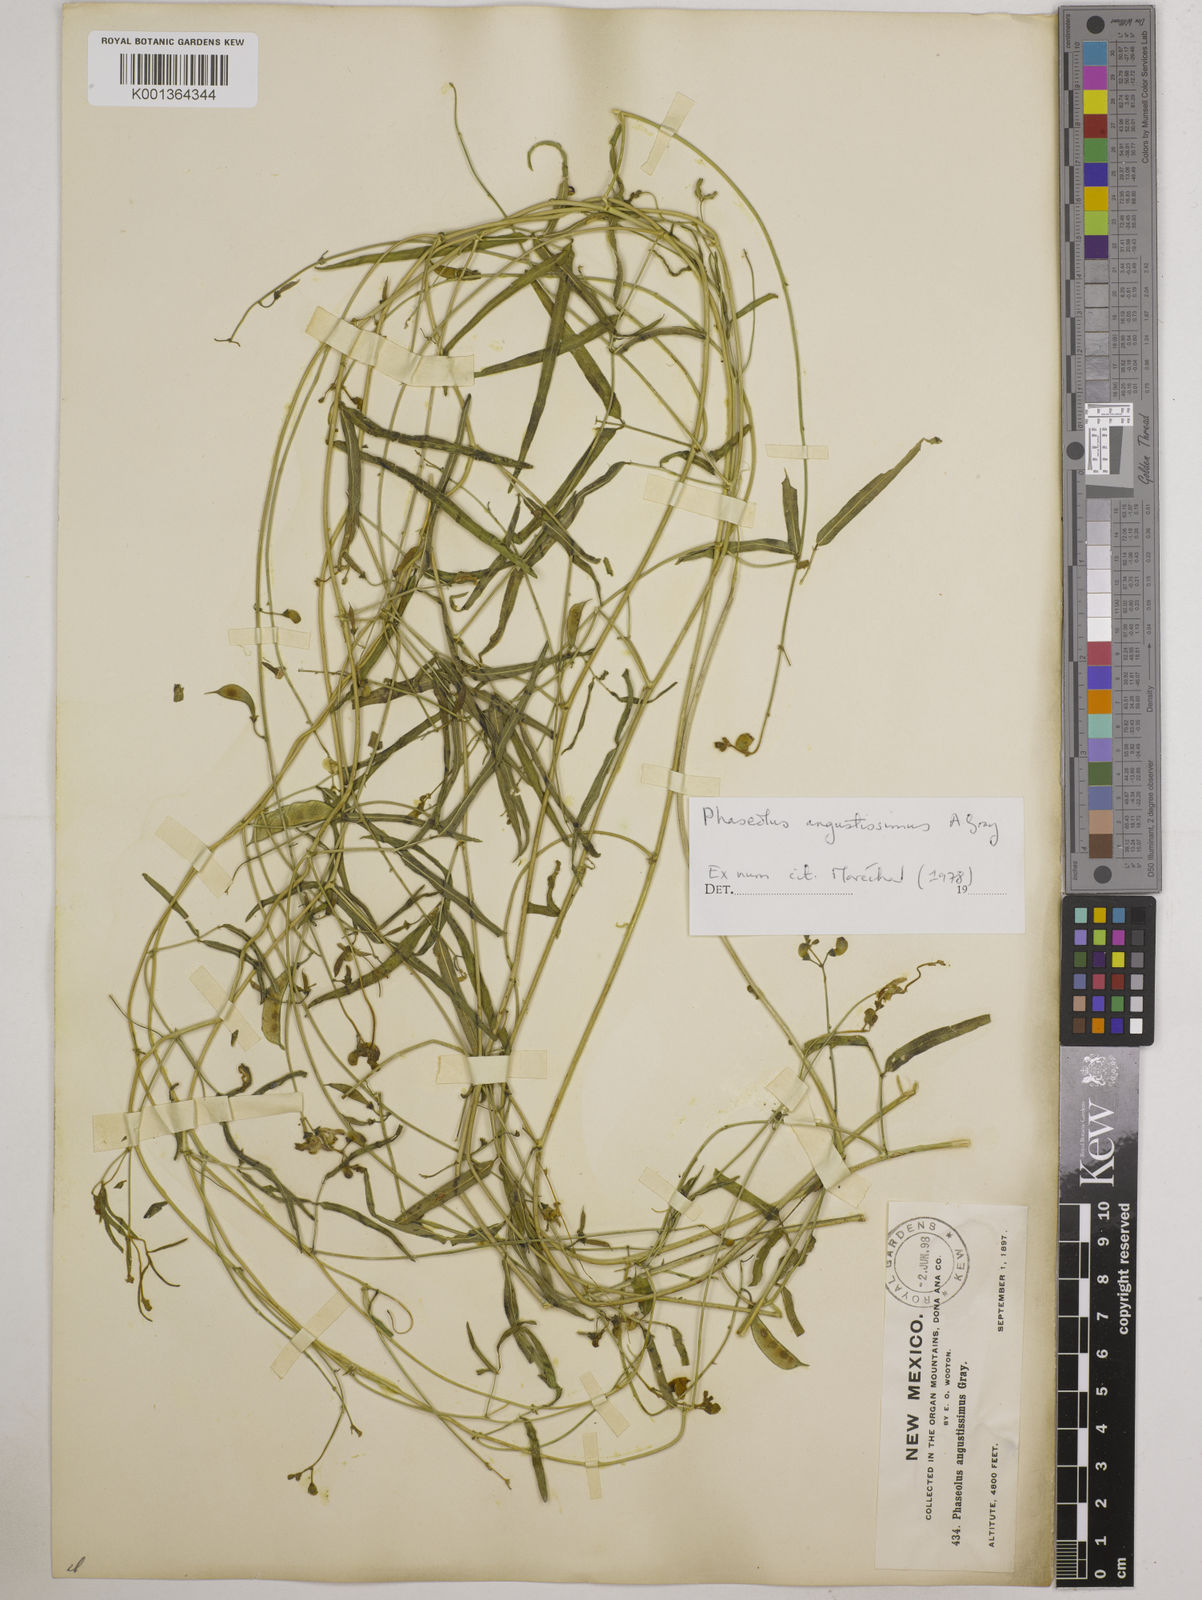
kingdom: Plantae
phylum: Tracheophyta
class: Magnoliopsida
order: Fabales
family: Fabaceae
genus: Phaseolus
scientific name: Phaseolus angustissimus
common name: Slimleaf bean
